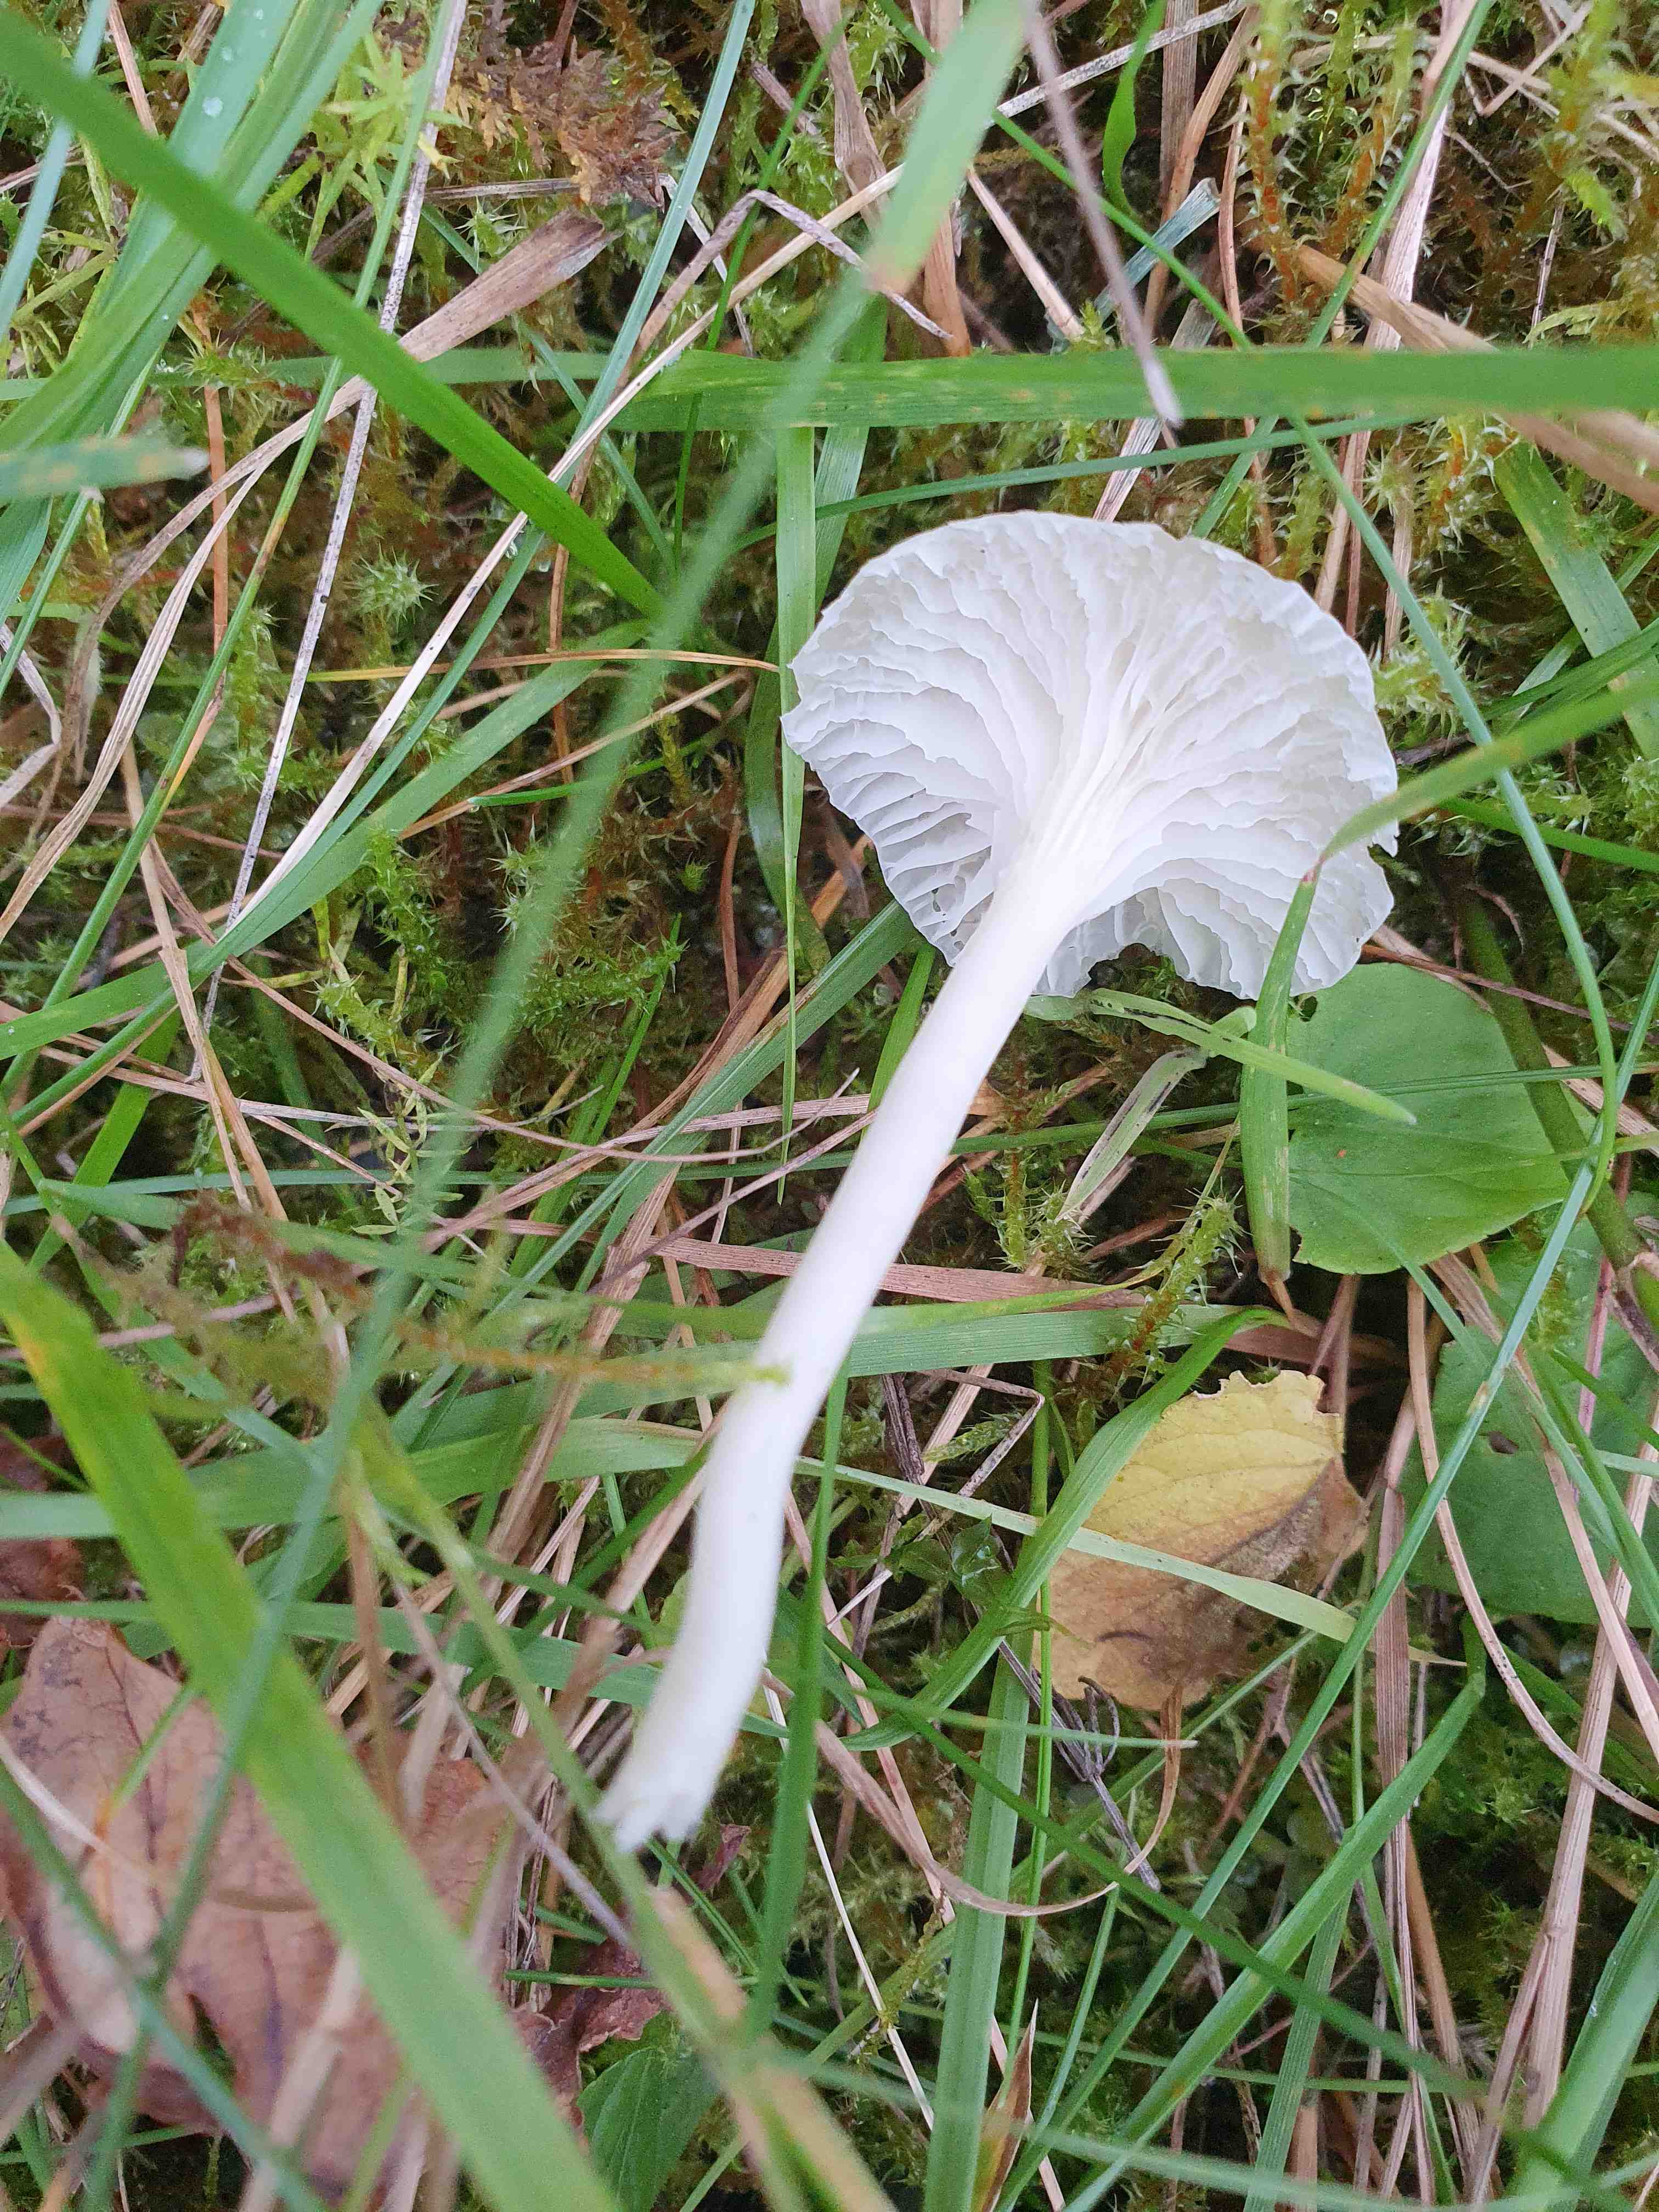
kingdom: Fungi
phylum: Basidiomycota
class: Agaricomycetes
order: Agaricales
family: Hygrophoraceae
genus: Cuphophyllus
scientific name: Cuphophyllus virgineus
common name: snehvid vokshat
